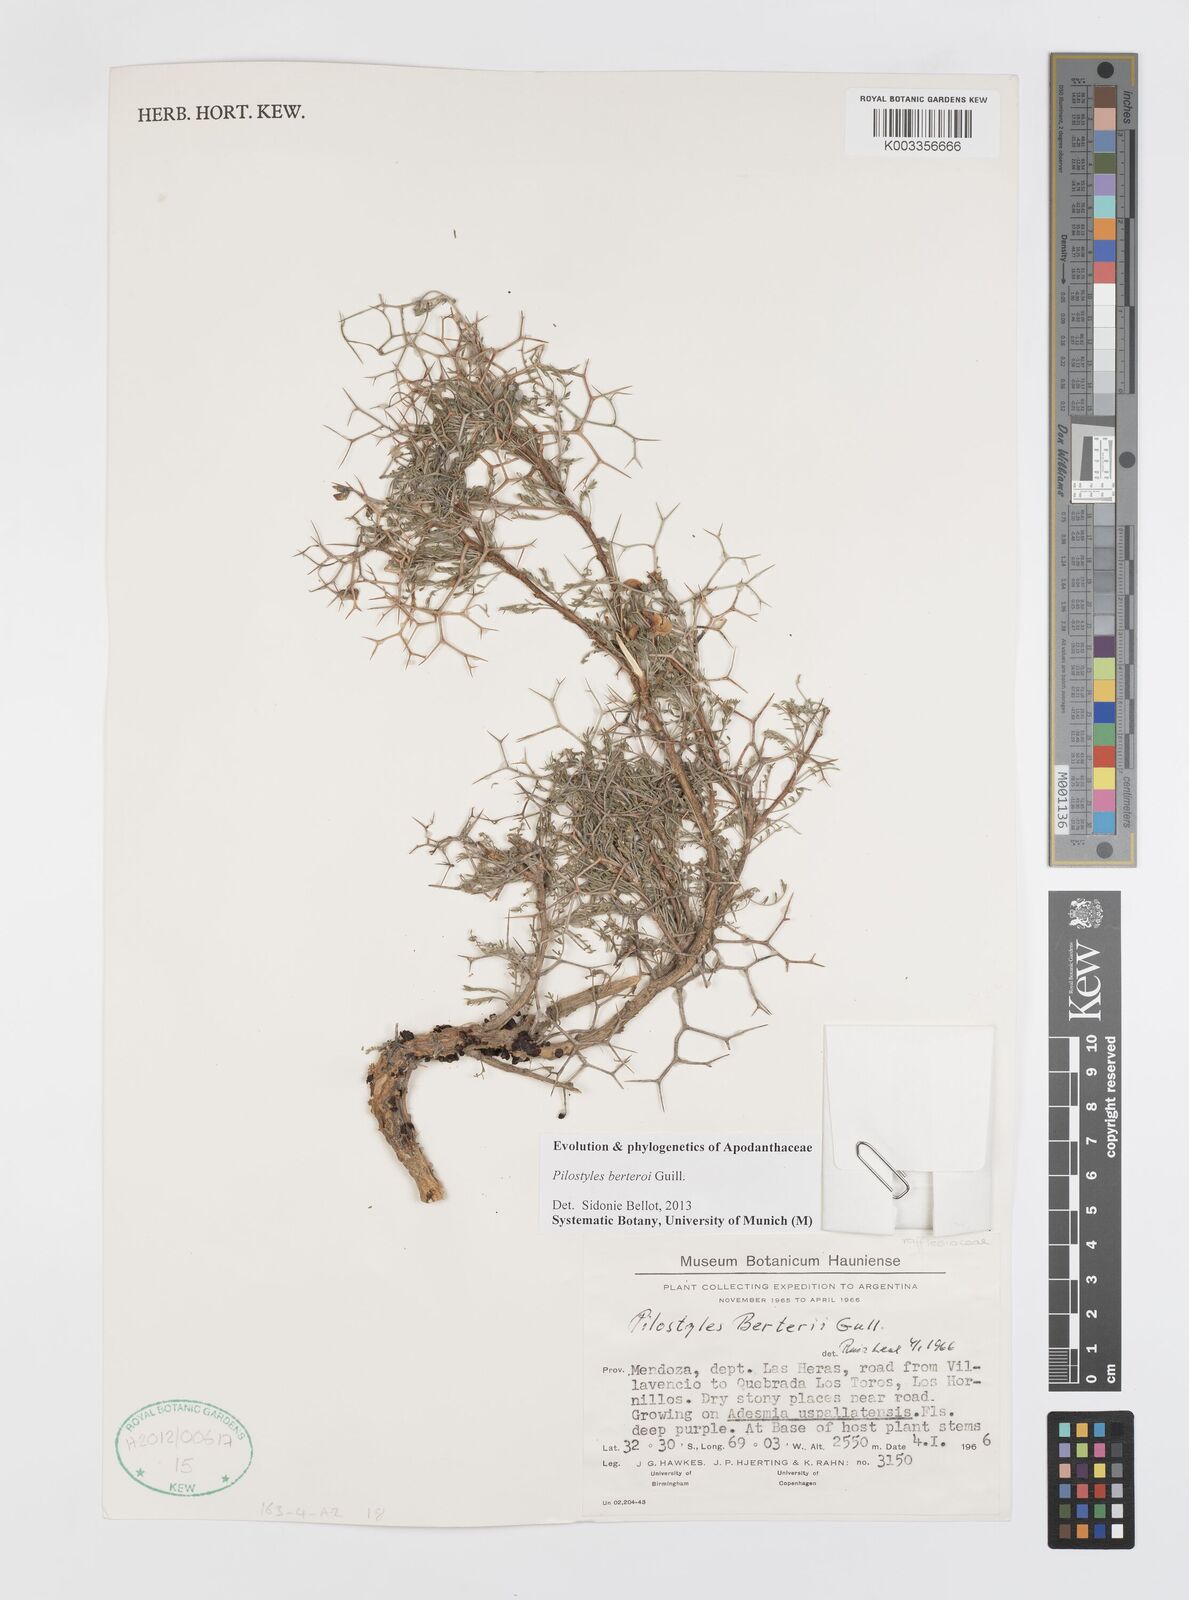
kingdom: Plantae
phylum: Tracheophyta
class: Magnoliopsida
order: Cucurbitales
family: Apodanthaceae
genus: Pilostyles
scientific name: Pilostyles berteroi
